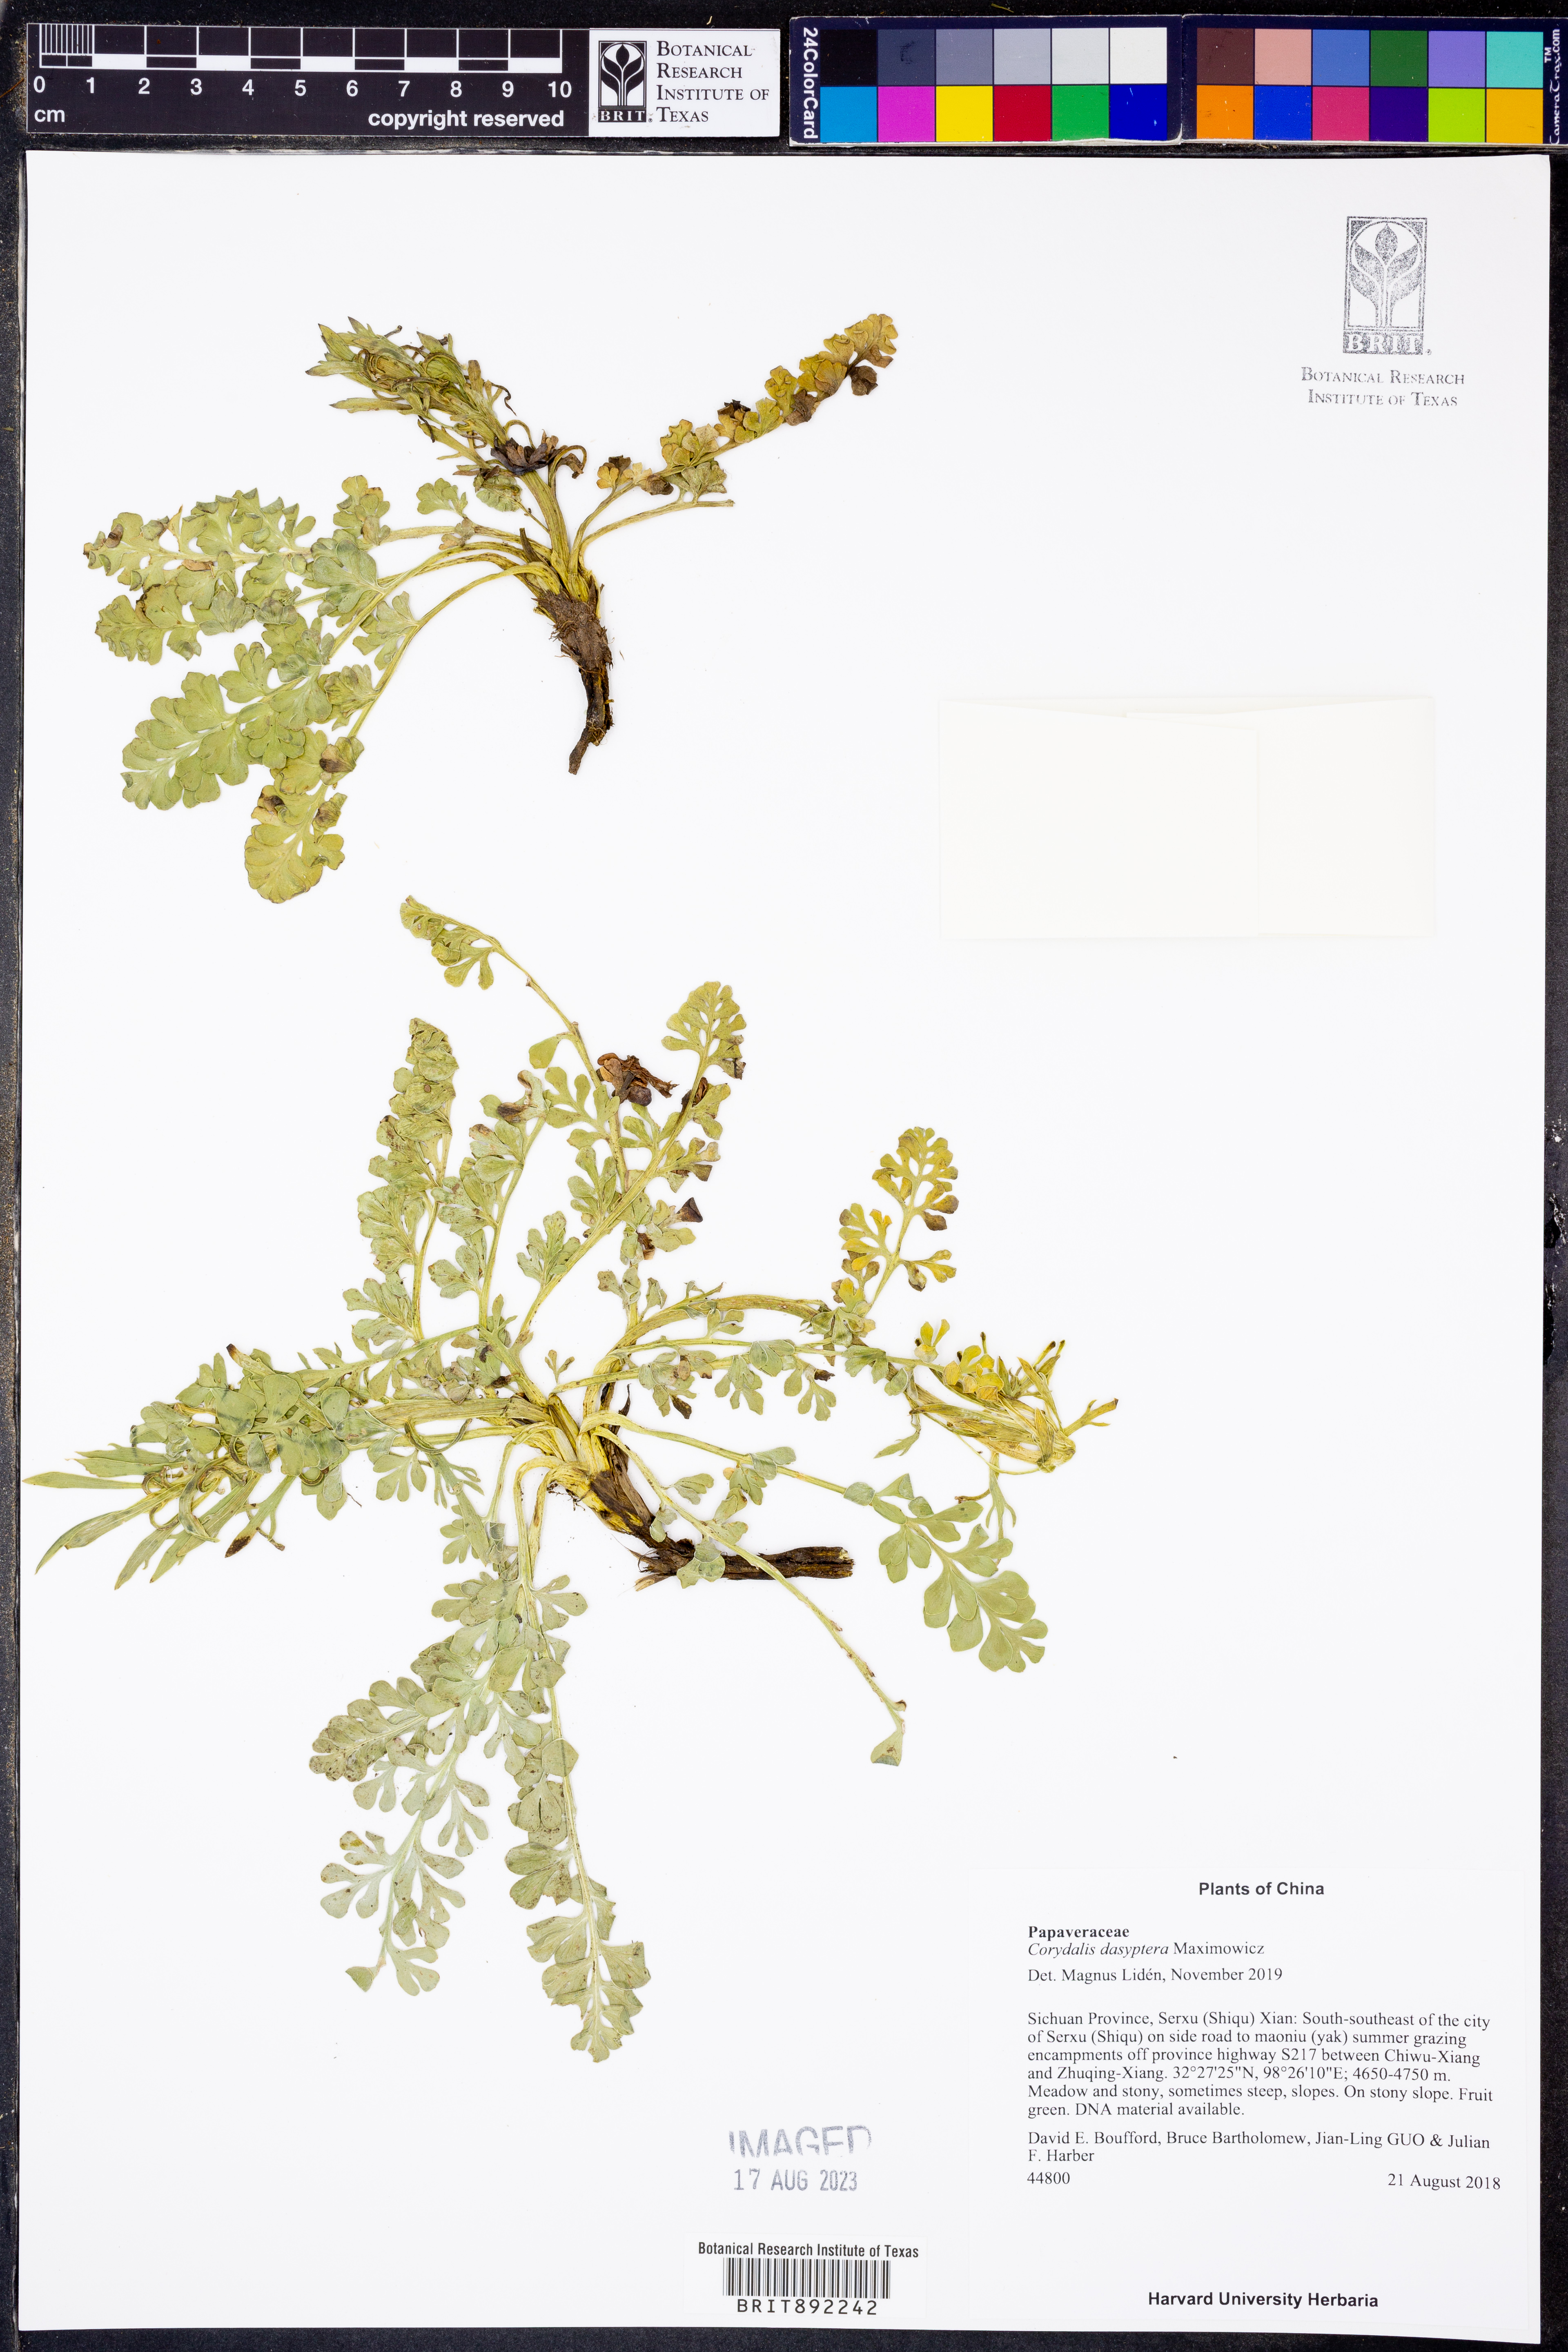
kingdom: Plantae
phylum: Tracheophyta
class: Magnoliopsida
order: Ranunculales
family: Papaveraceae
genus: Corydalis
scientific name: Corydalis dasyptera
